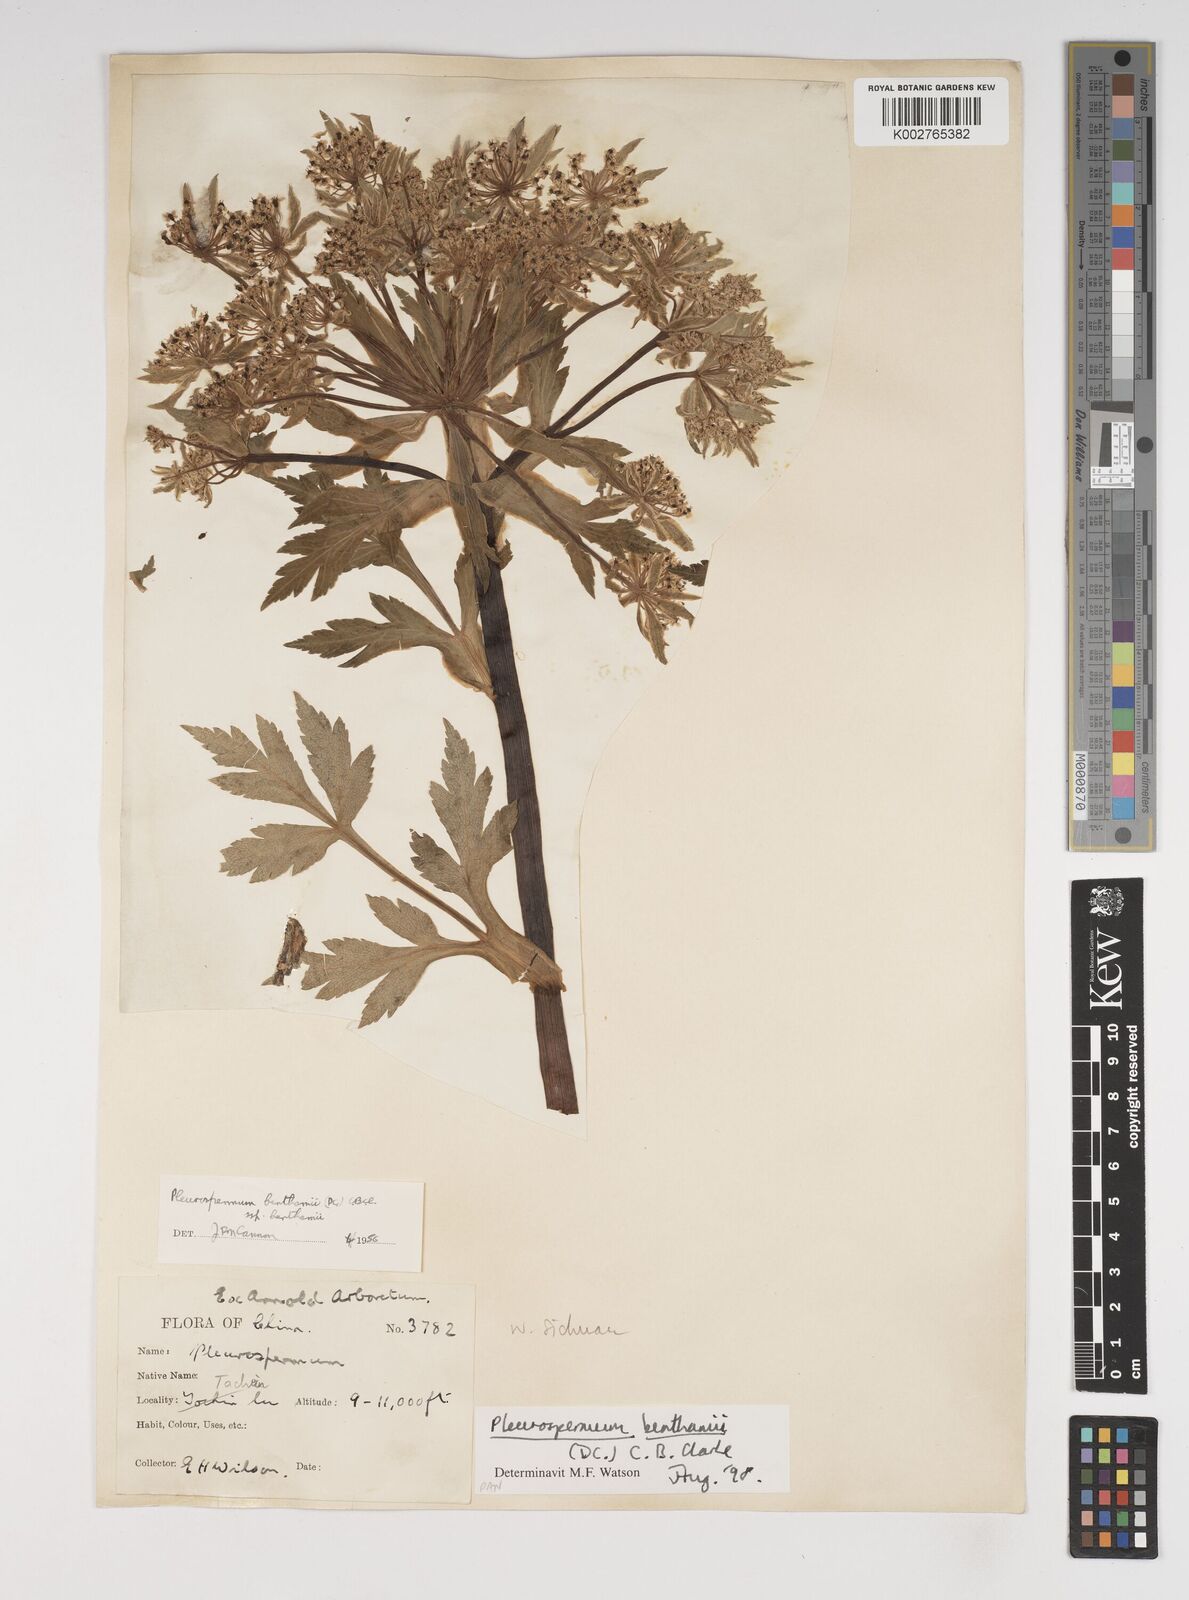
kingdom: Plantae
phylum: Tracheophyta
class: Magnoliopsida
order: Apiales
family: Apiaceae
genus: Hymenidium
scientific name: Hymenidium benthamii
